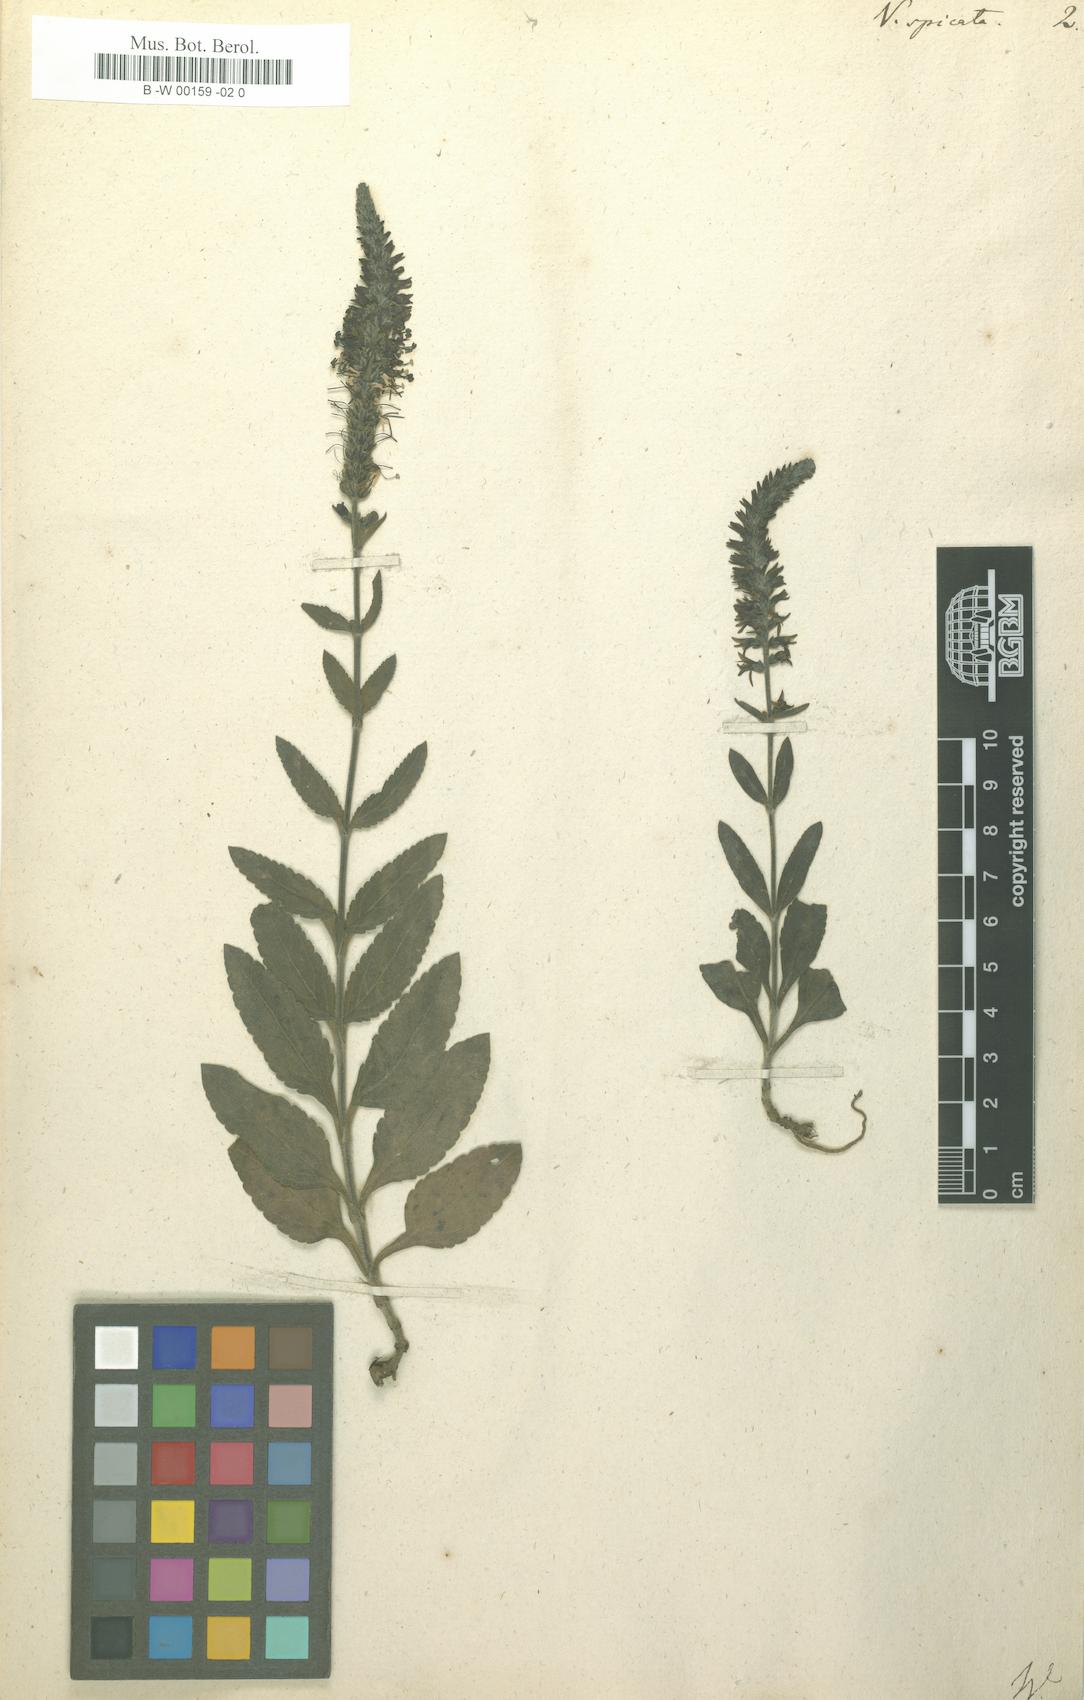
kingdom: Plantae
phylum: Tracheophyta
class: Magnoliopsida
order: Lamiales
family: Plantaginaceae
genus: Veronica
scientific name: Veronica spicata
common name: Spiked speedwell
